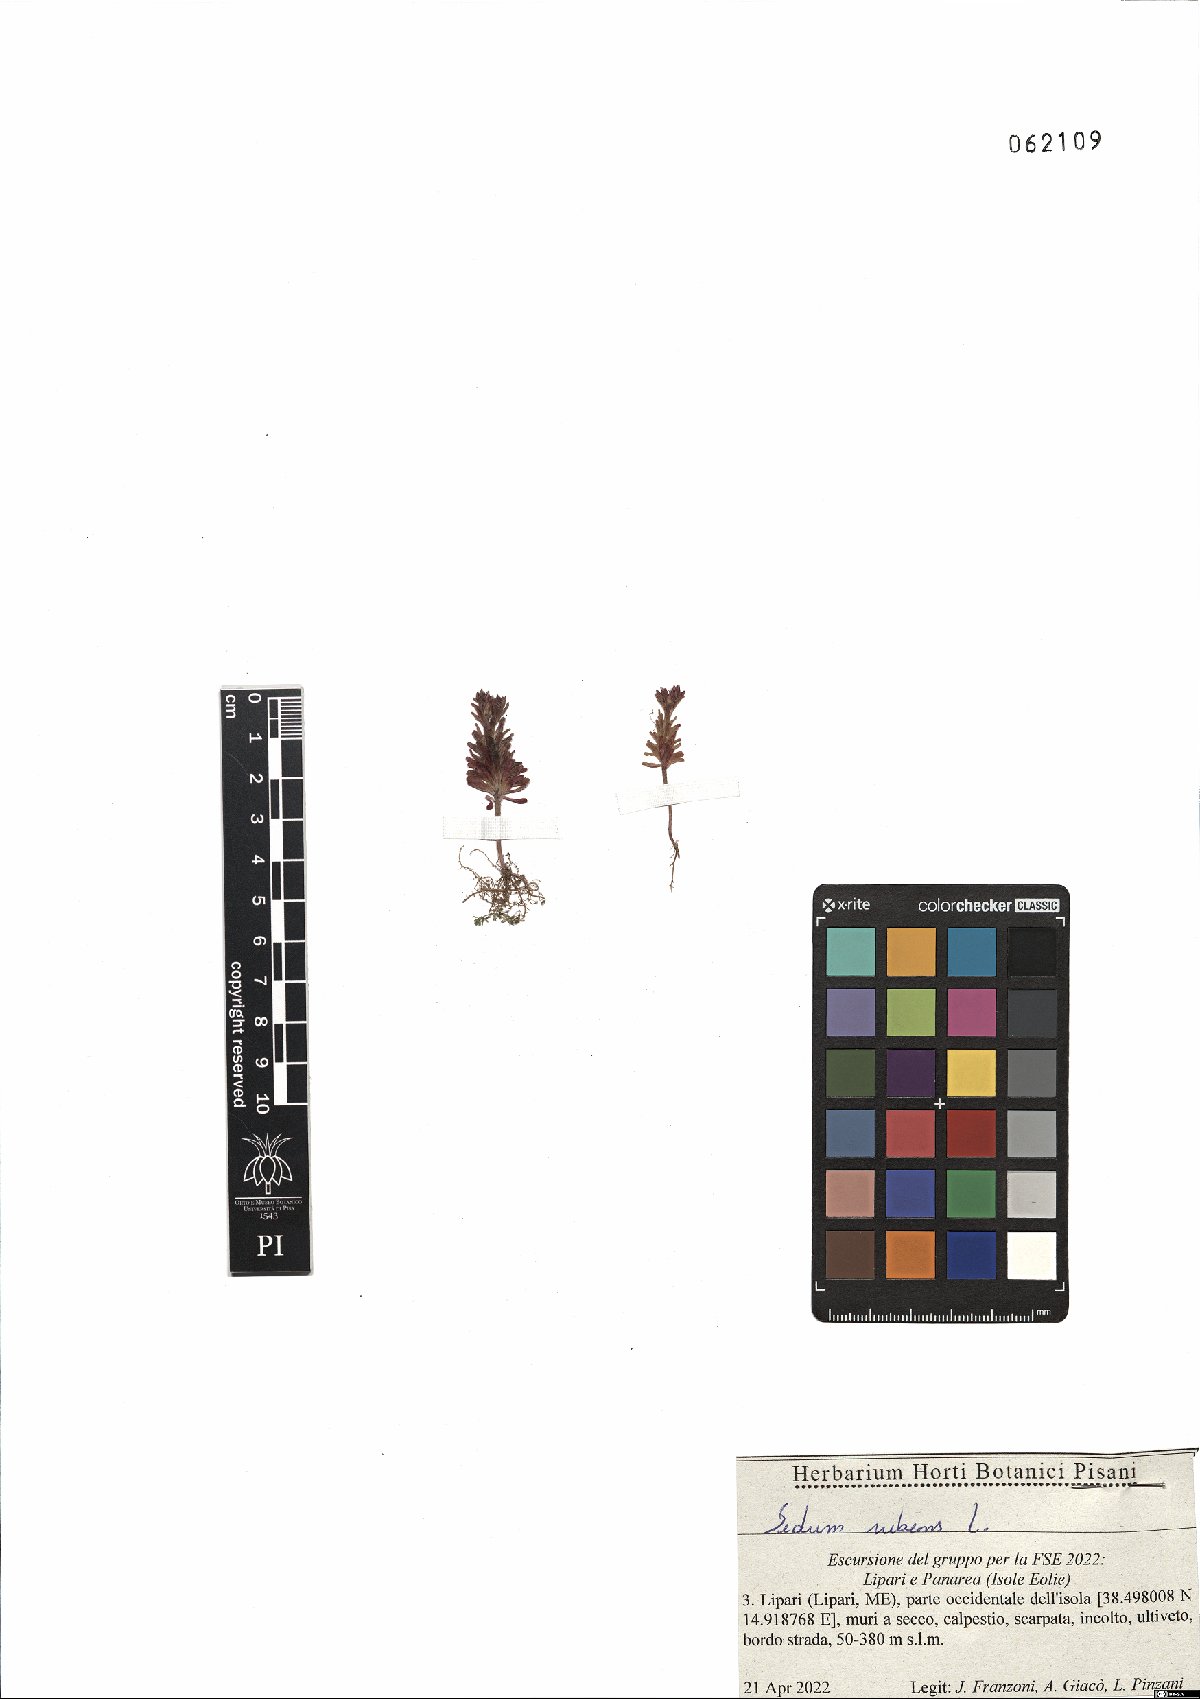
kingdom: Plantae
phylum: Tracheophyta
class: Magnoliopsida
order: Saxifragales
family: Crassulaceae
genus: Sedum
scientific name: Sedum rubens
